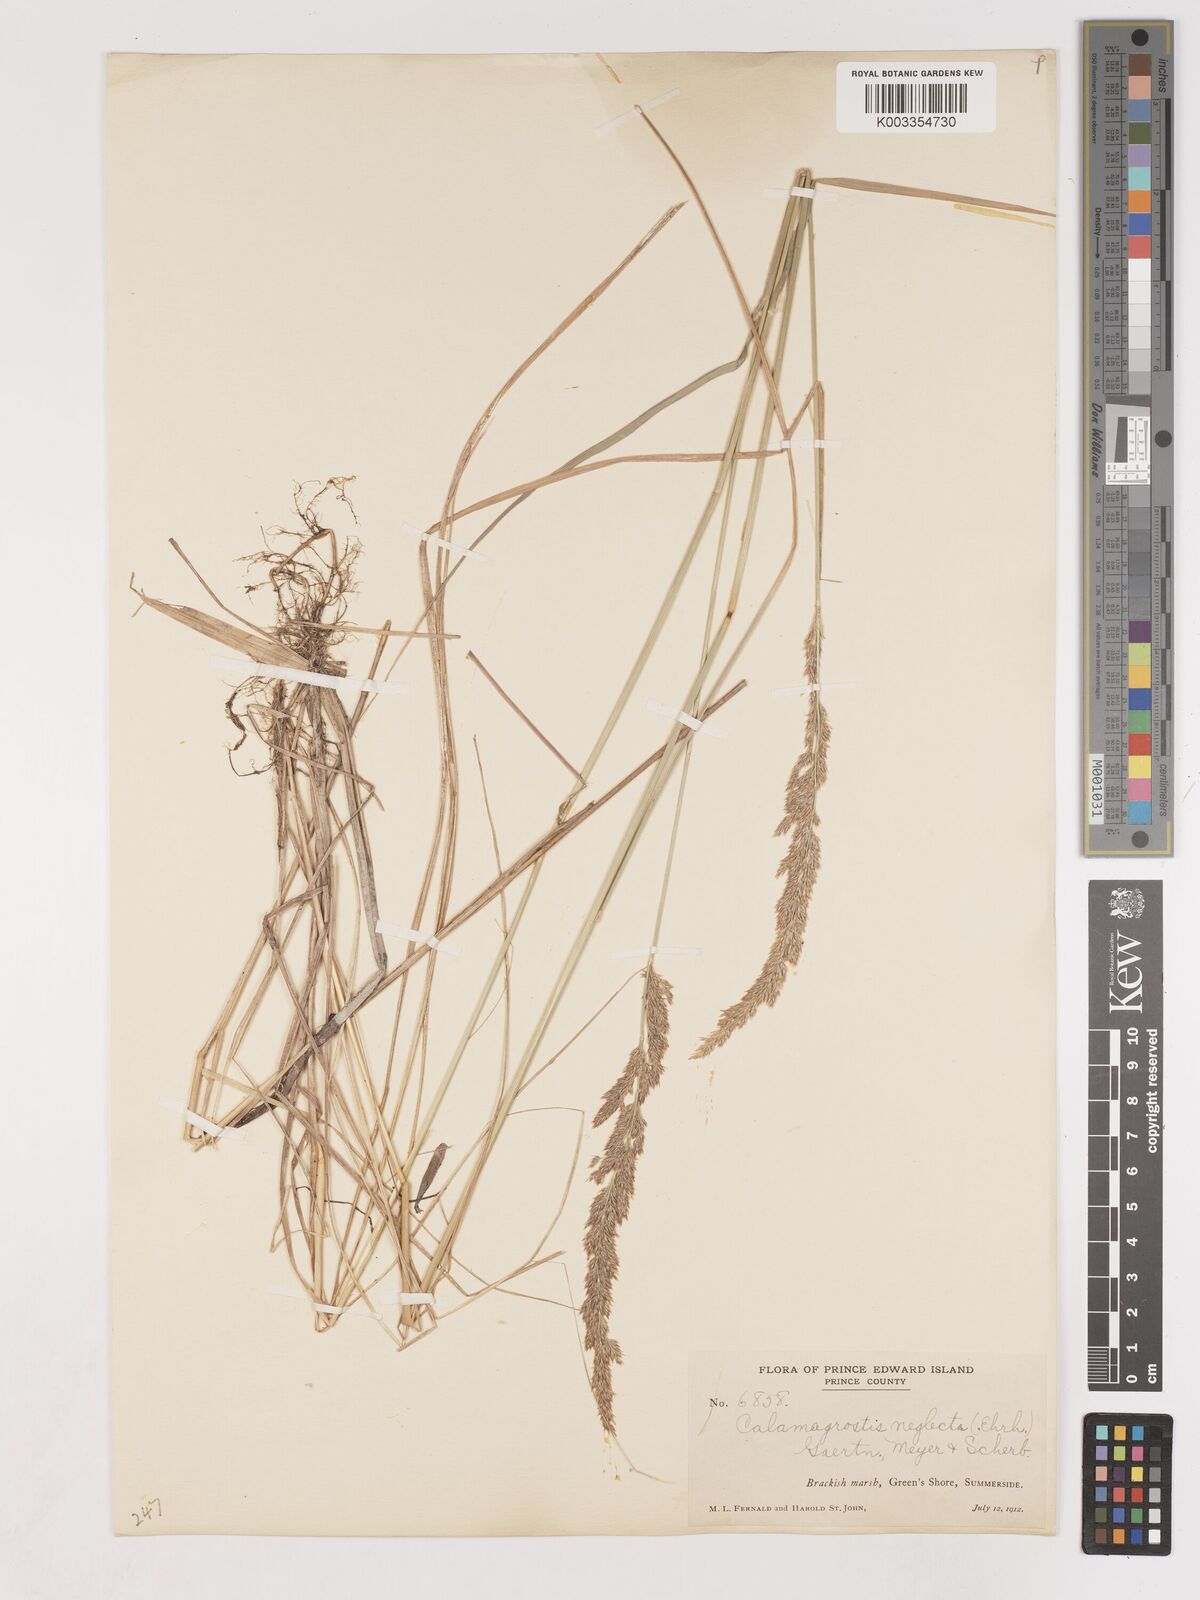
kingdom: Plantae
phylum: Tracheophyta
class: Liliopsida
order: Poales
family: Poaceae
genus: Cinnagrostis
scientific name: Cinnagrostis recta
